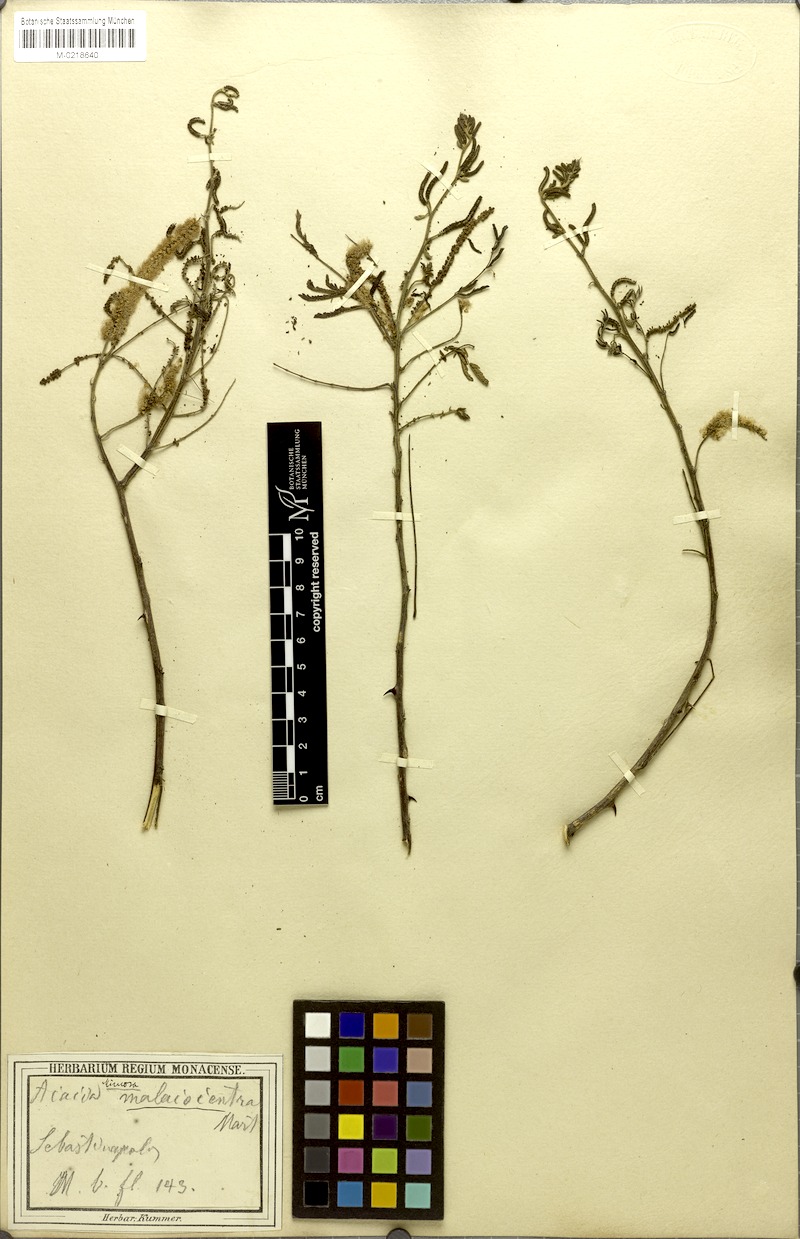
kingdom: Plantae
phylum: Tracheophyta
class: Magnoliopsida
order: Fabales
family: Fabaceae
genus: Mimosa
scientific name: Mimosa arenosa
